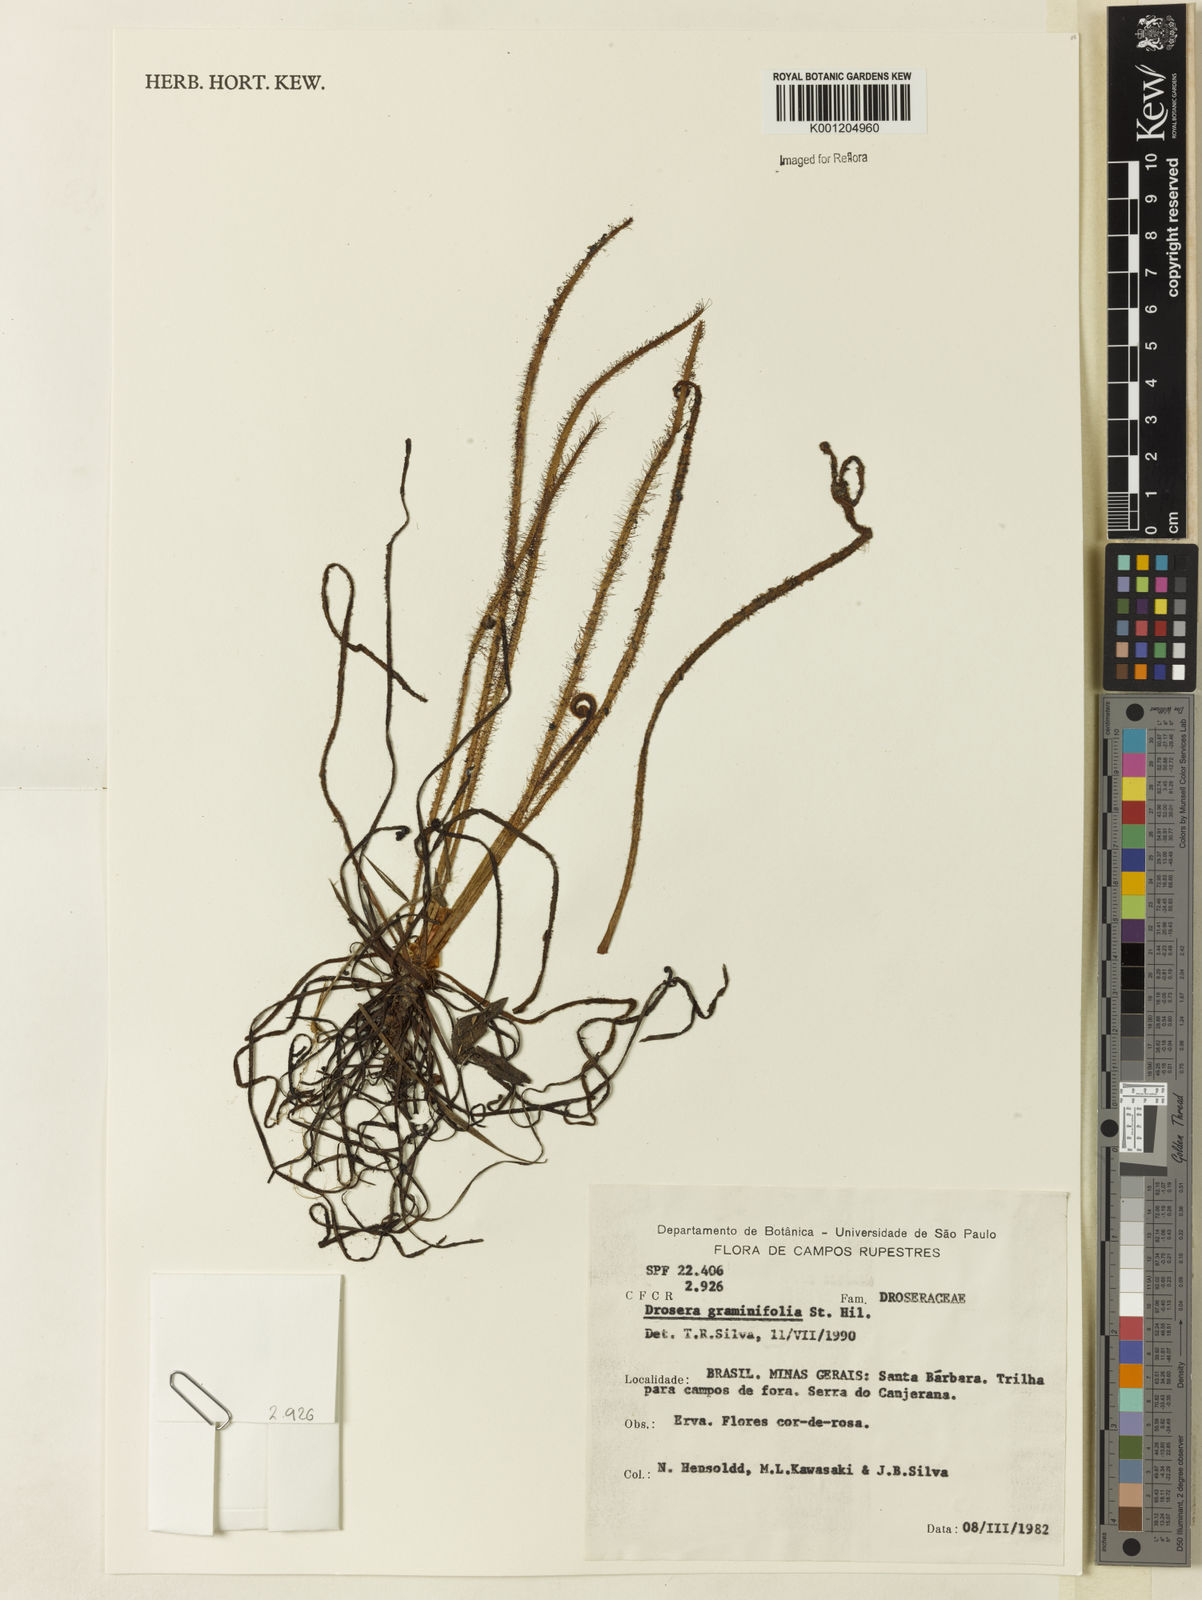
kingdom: Plantae
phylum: Tracheophyta
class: Magnoliopsida
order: Caryophyllales
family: Droseraceae
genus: Drosera
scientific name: Drosera graminifolia
